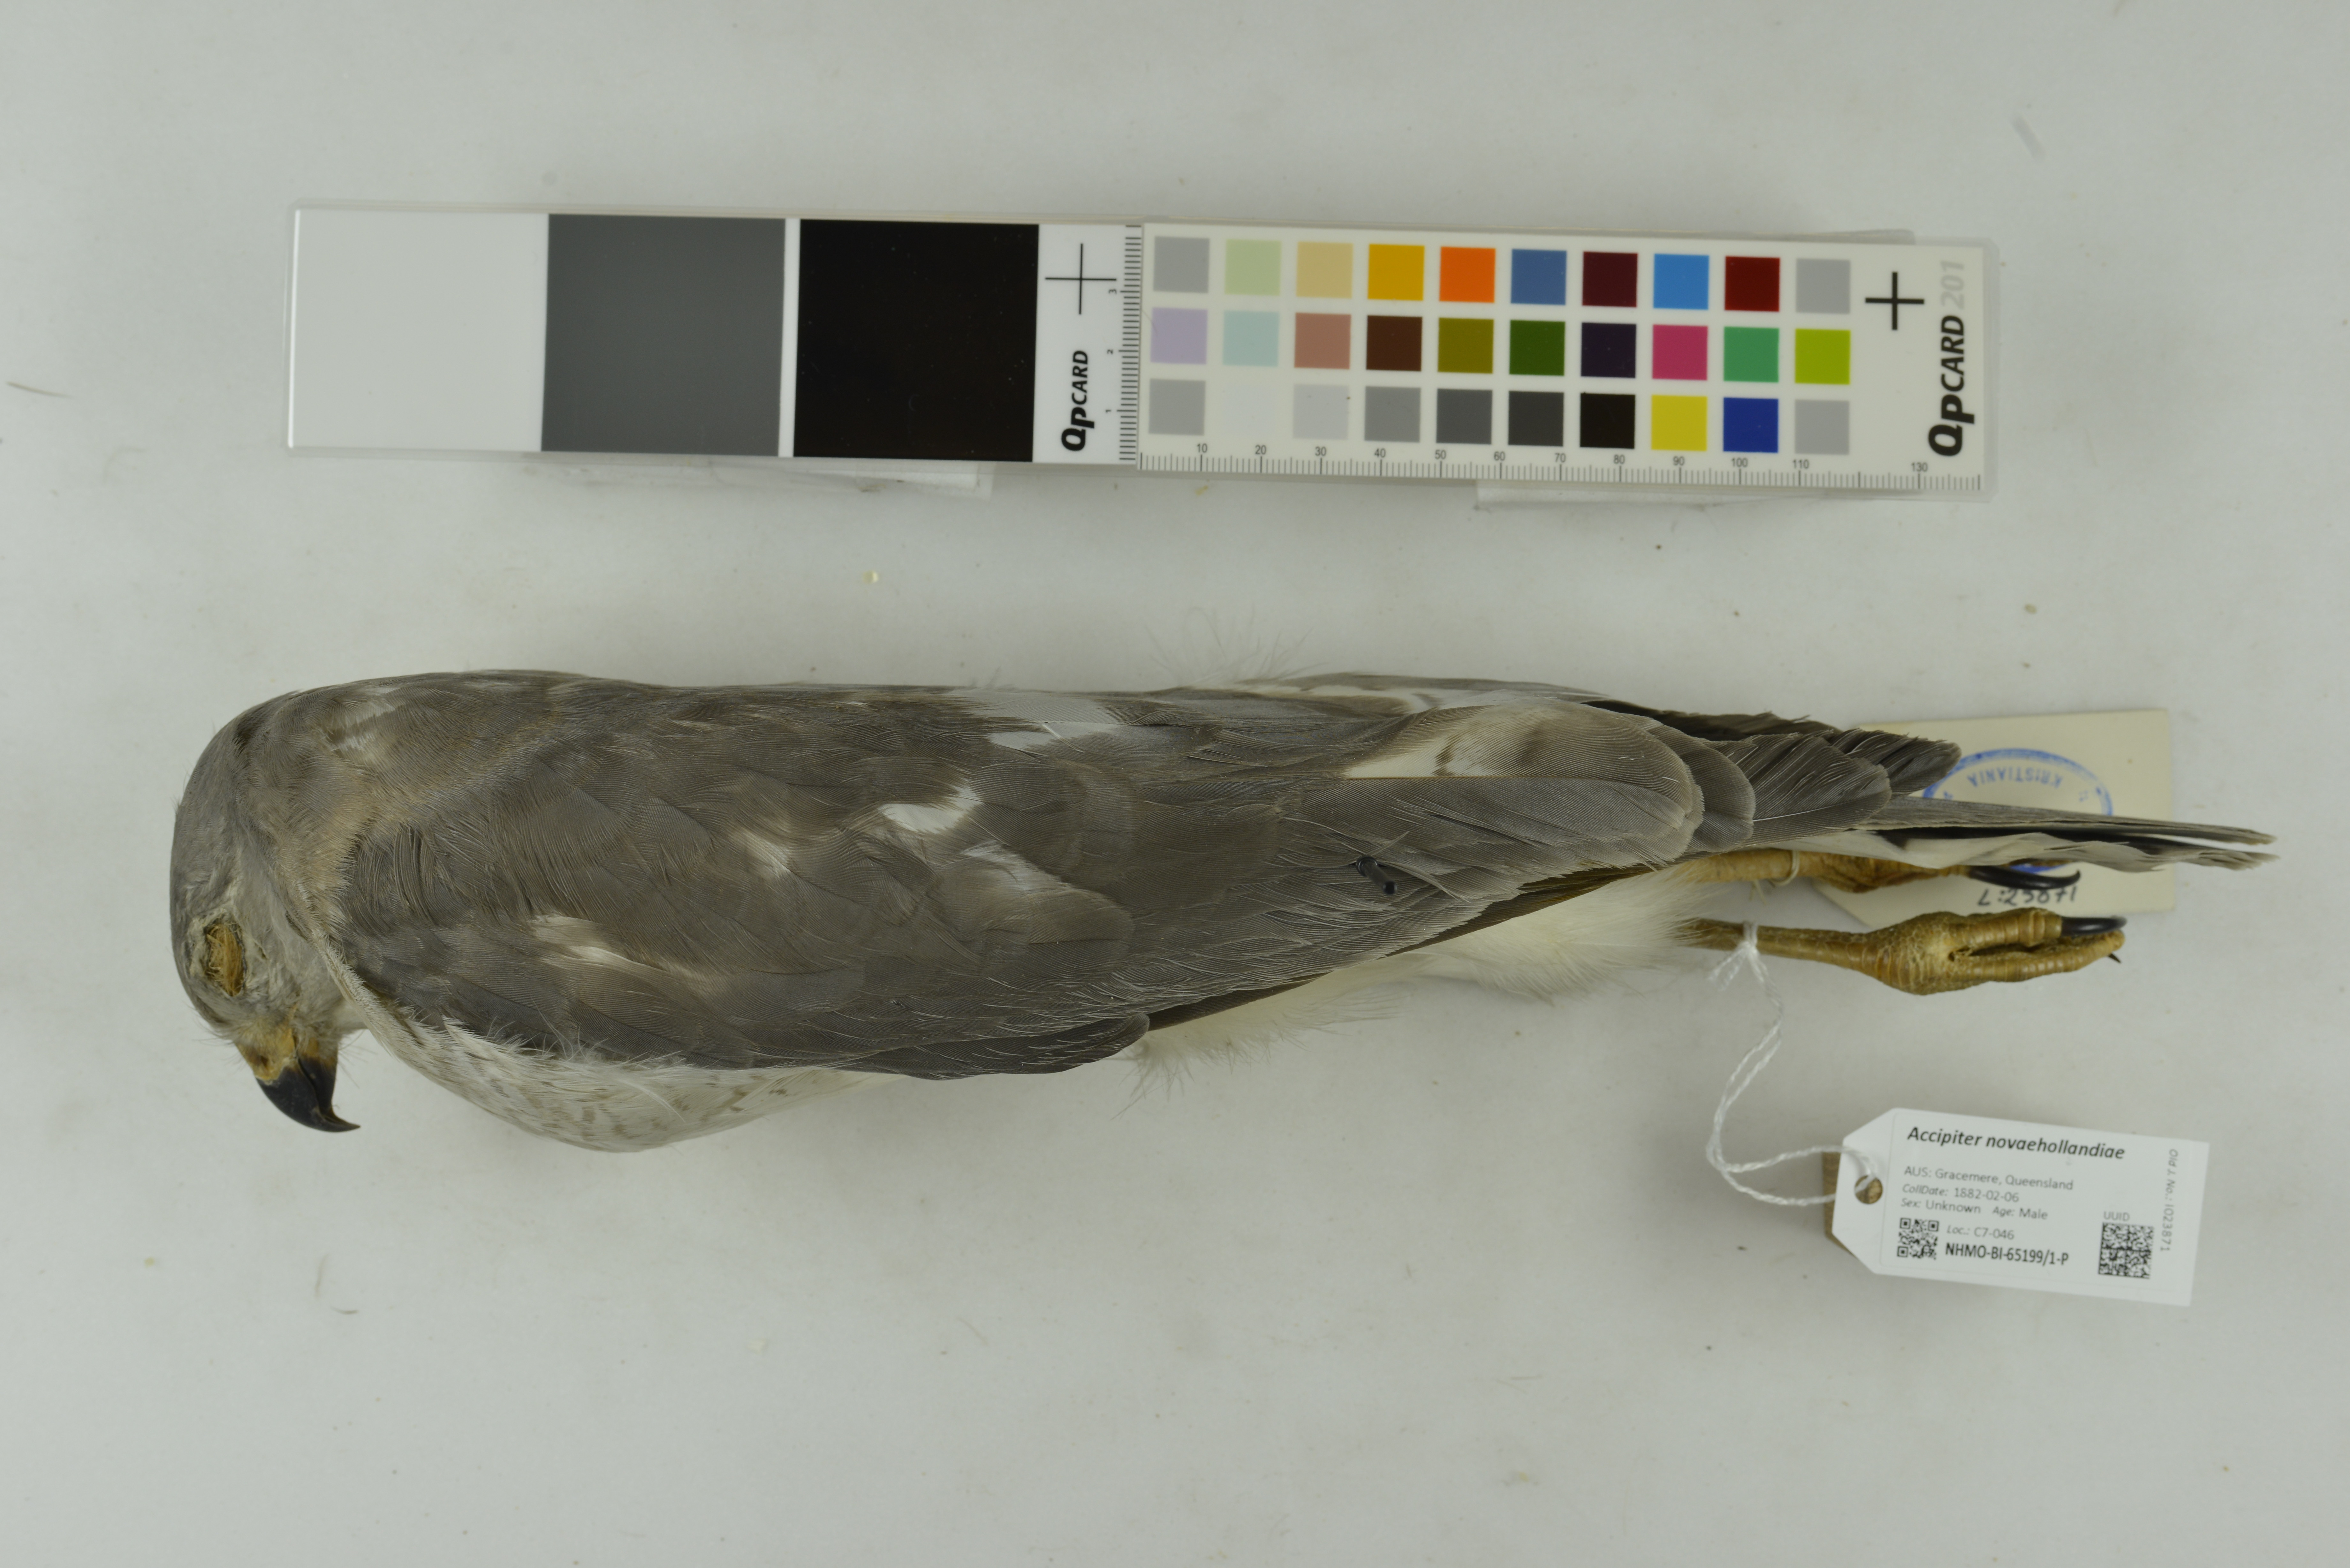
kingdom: Animalia
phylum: Chordata
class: Aves
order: Accipitriformes
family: Accipitridae
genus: Accipiter
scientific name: Accipiter novaehollandiae
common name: Grey goshawk
